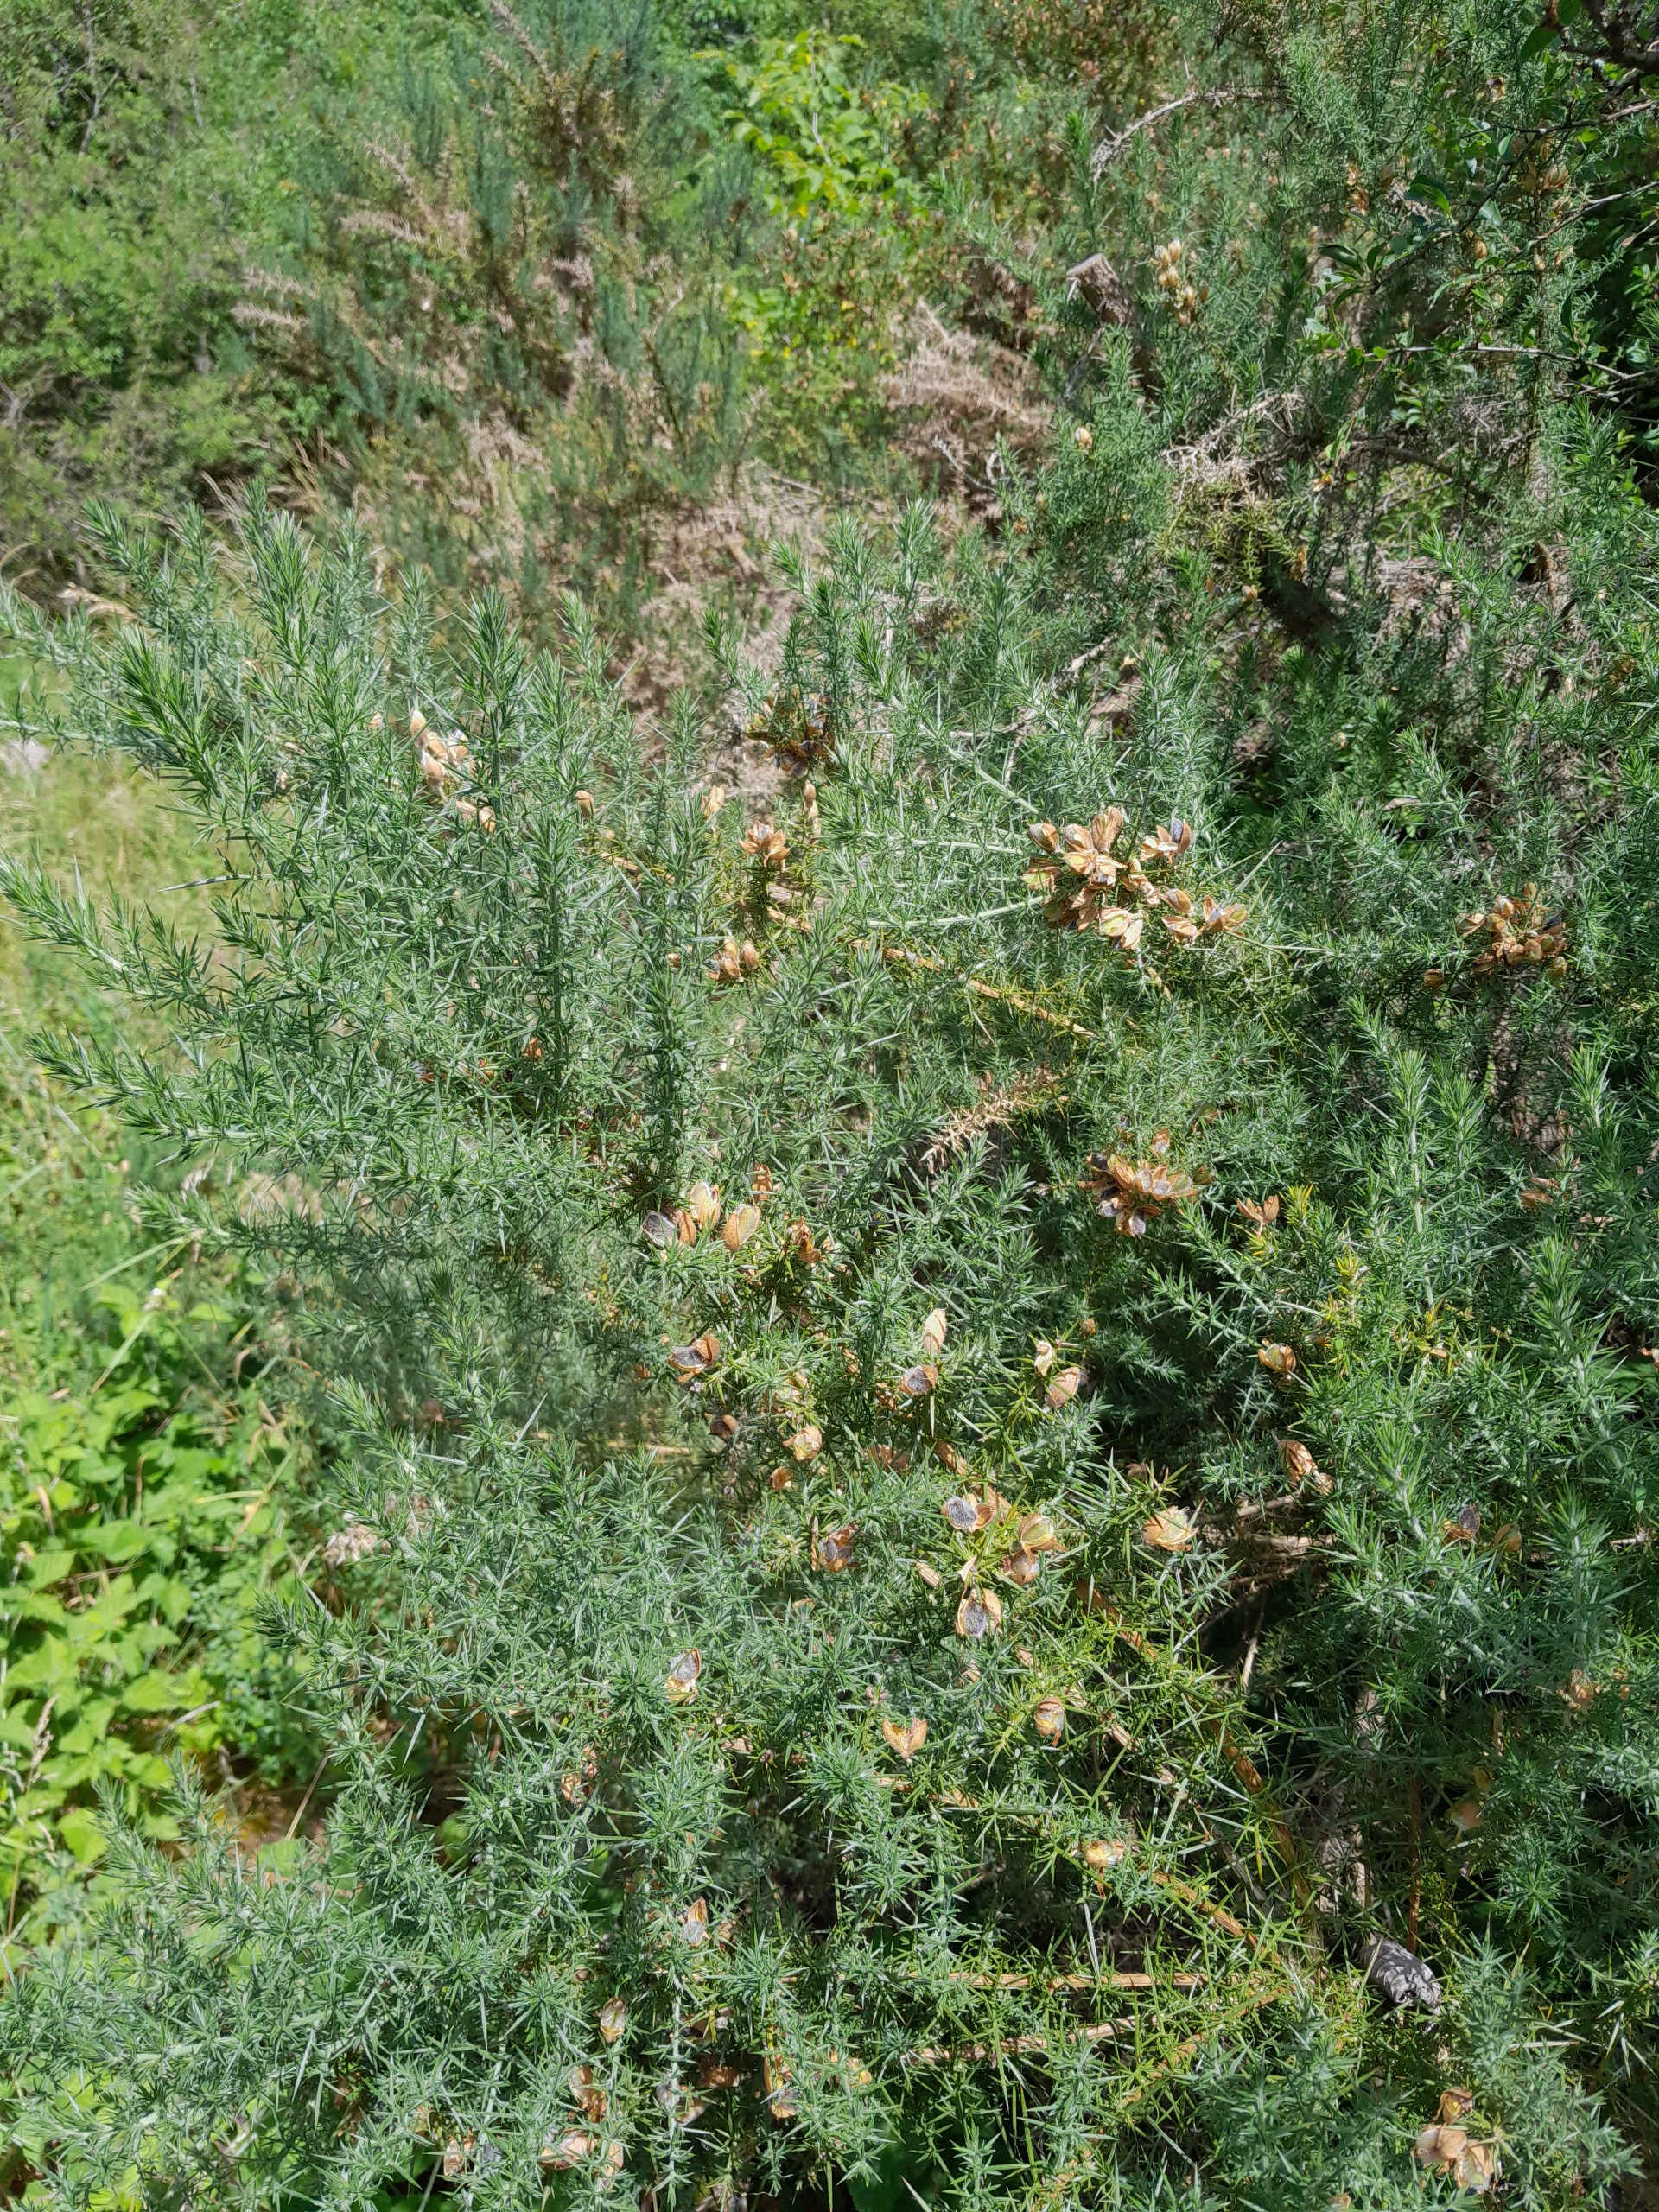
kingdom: Plantae
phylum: Tracheophyta
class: Magnoliopsida
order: Fabales
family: Fabaceae
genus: Ulex
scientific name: Ulex europaeus
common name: Tornblad
